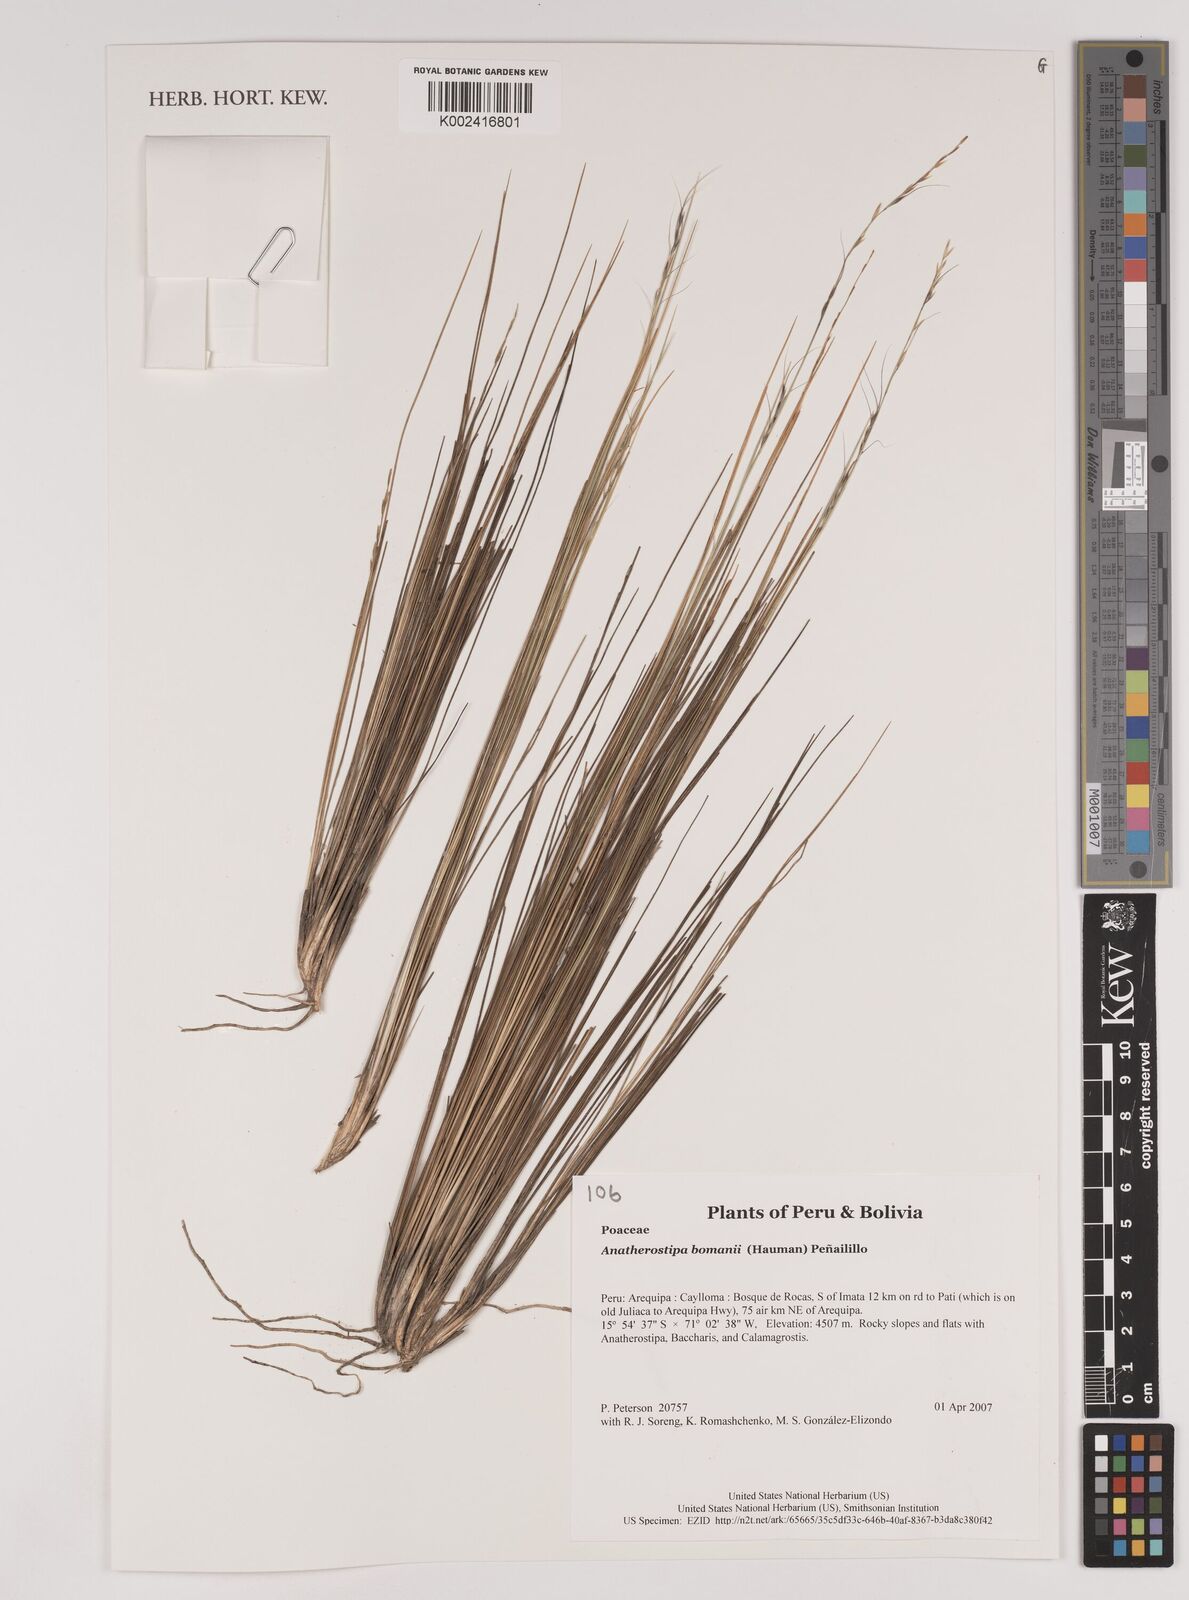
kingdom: Plantae
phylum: Tracheophyta
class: Liliopsida
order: Poales
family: Poaceae
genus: Stipa
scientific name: Stipa bomanii
